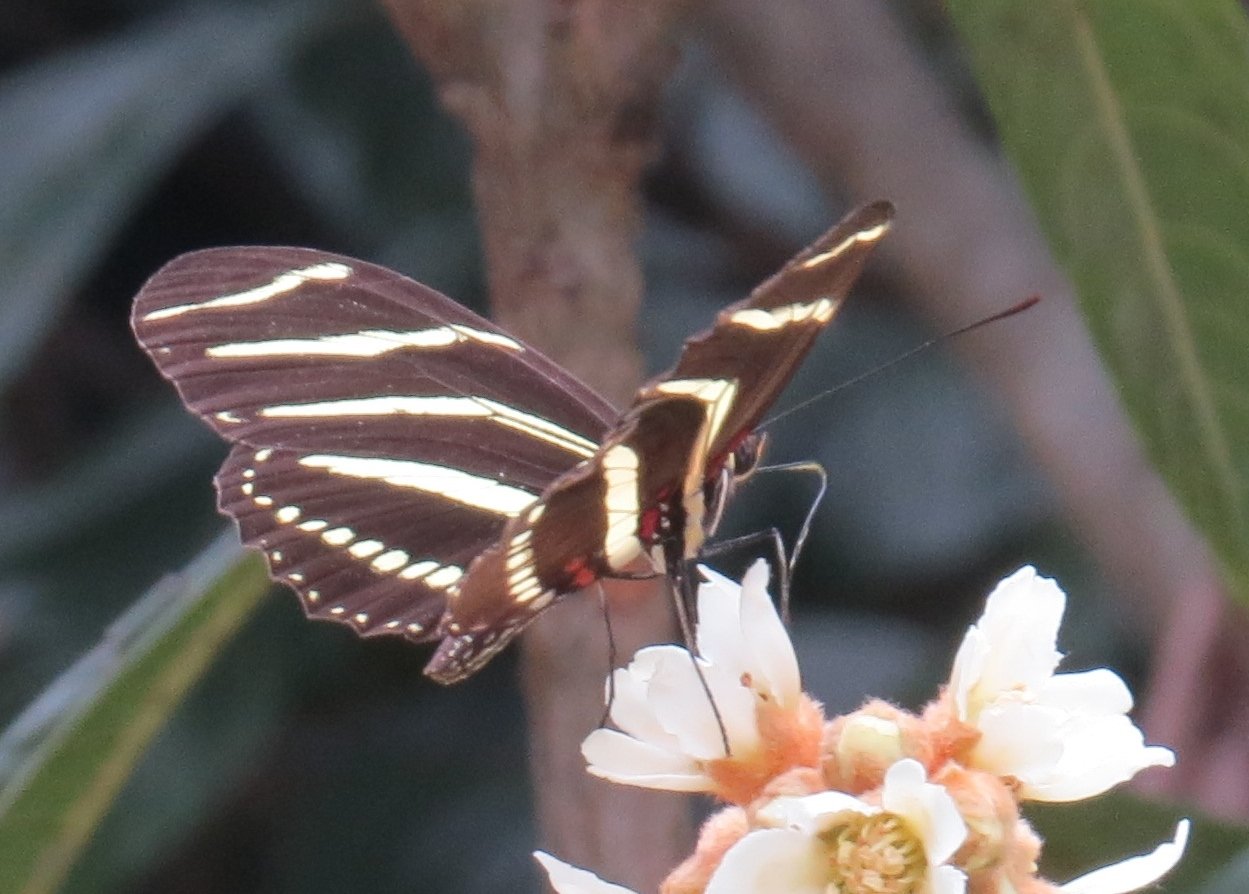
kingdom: Animalia
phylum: Arthropoda
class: Insecta
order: Lepidoptera
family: Nymphalidae
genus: Heliconius
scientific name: Heliconius charithonia
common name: Zebra Longwing
